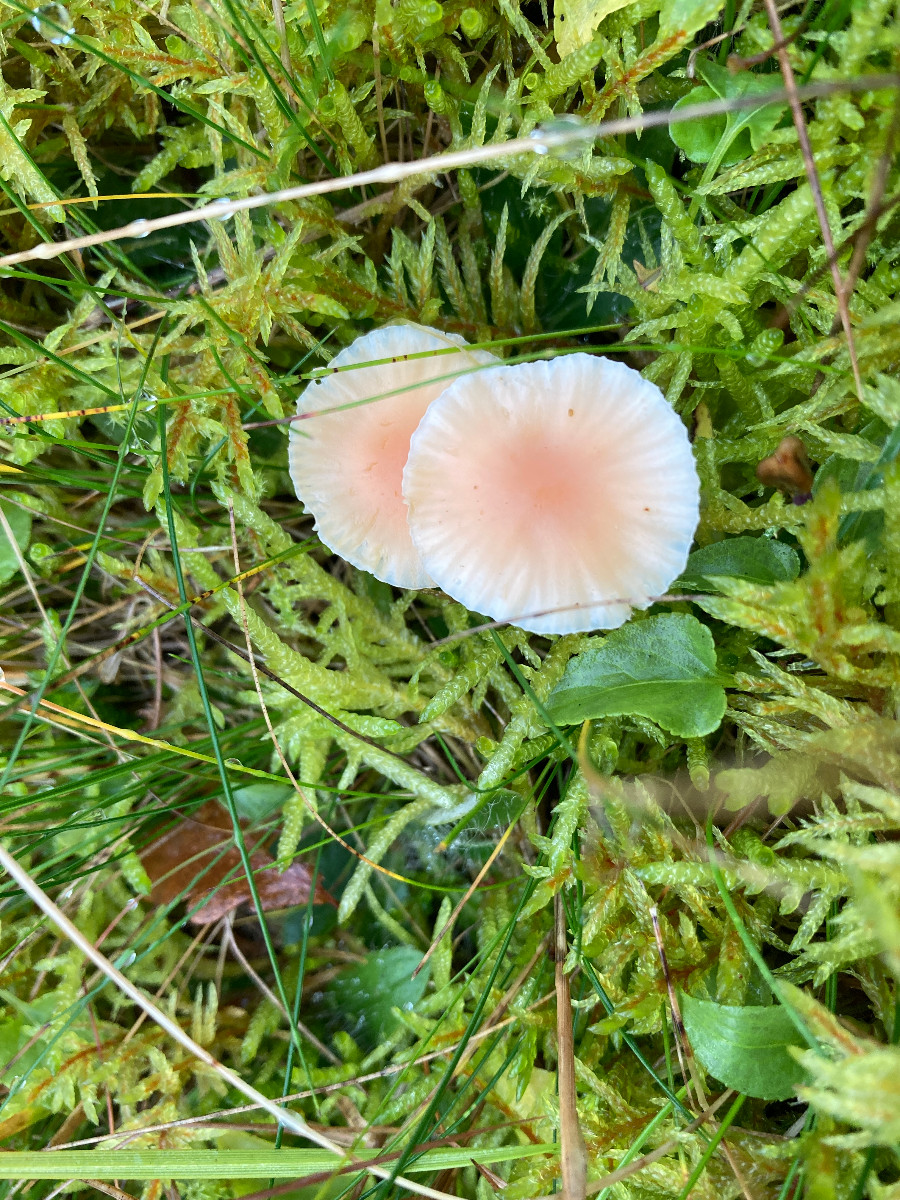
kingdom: Fungi
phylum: Basidiomycota
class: Agaricomycetes
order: Agaricales
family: Hygrophoraceae
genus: Cuphophyllus
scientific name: Cuphophyllus pratensis
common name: eng-vokshat
